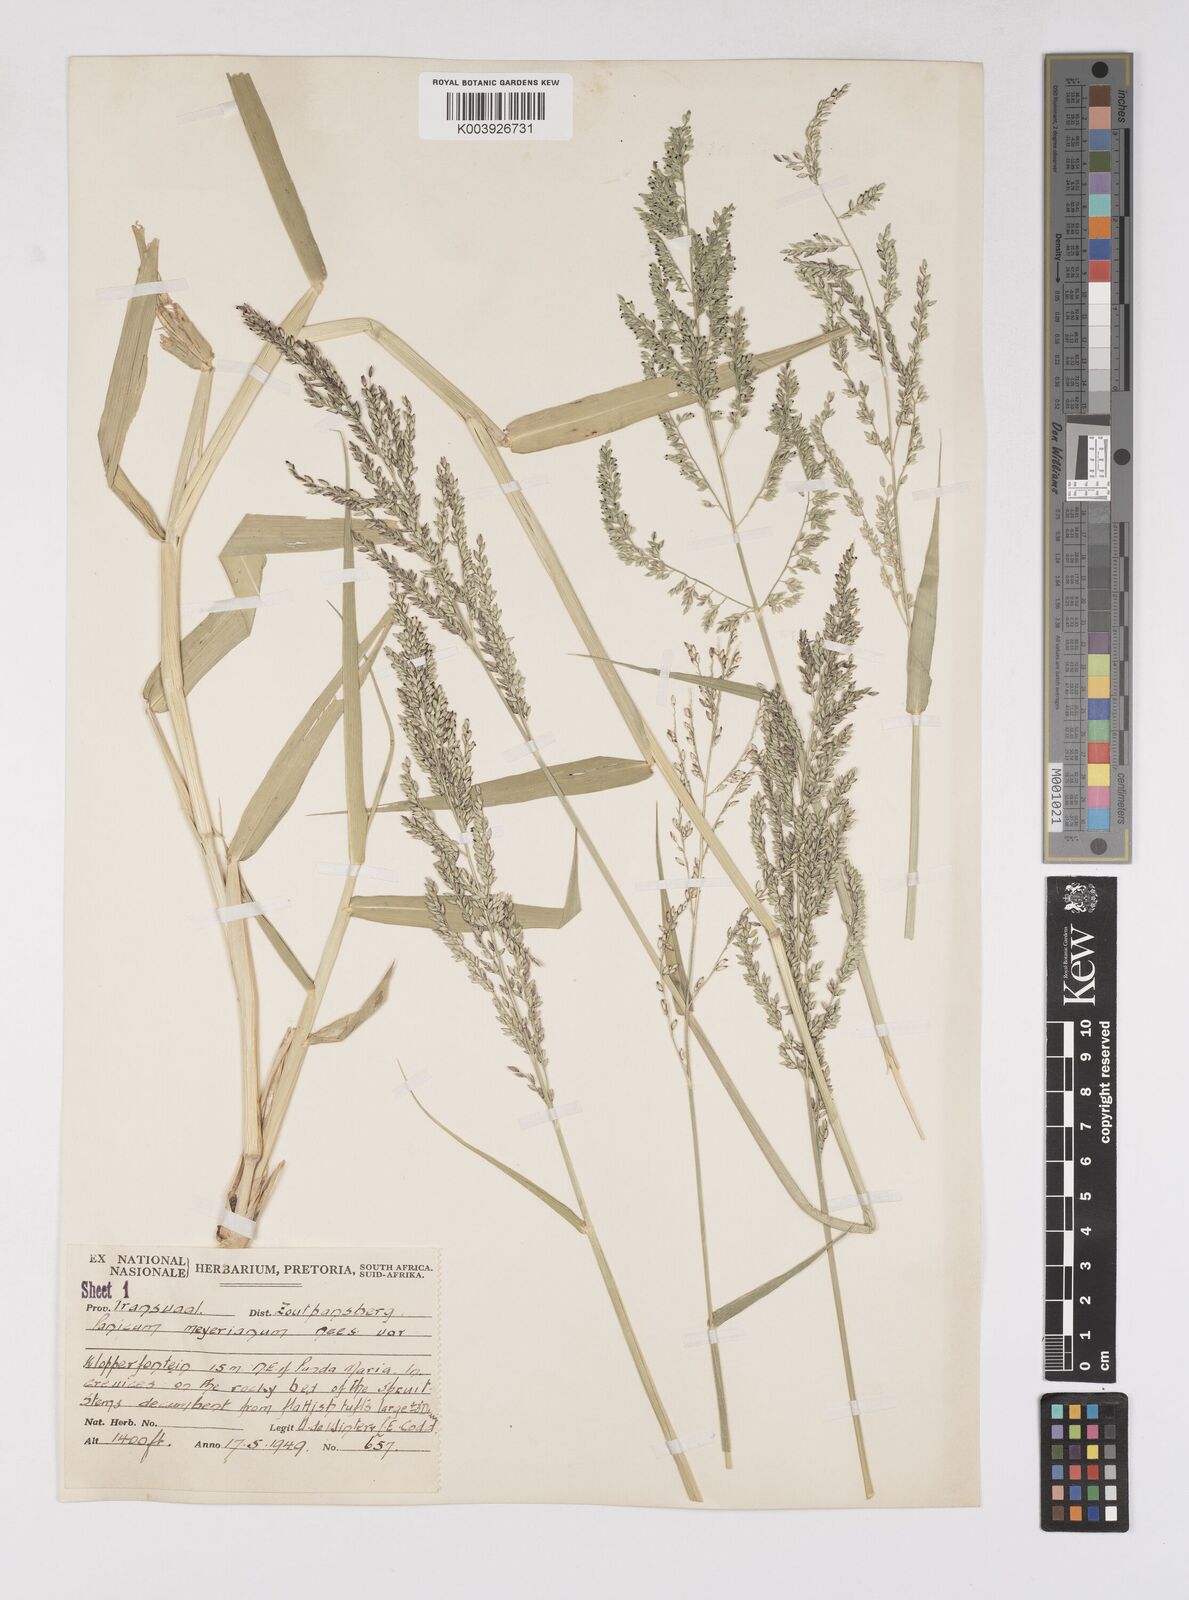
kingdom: Plantae
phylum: Tracheophyta
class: Liliopsida
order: Poales
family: Poaceae
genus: Eriochloa
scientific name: Eriochloa meyeriana
